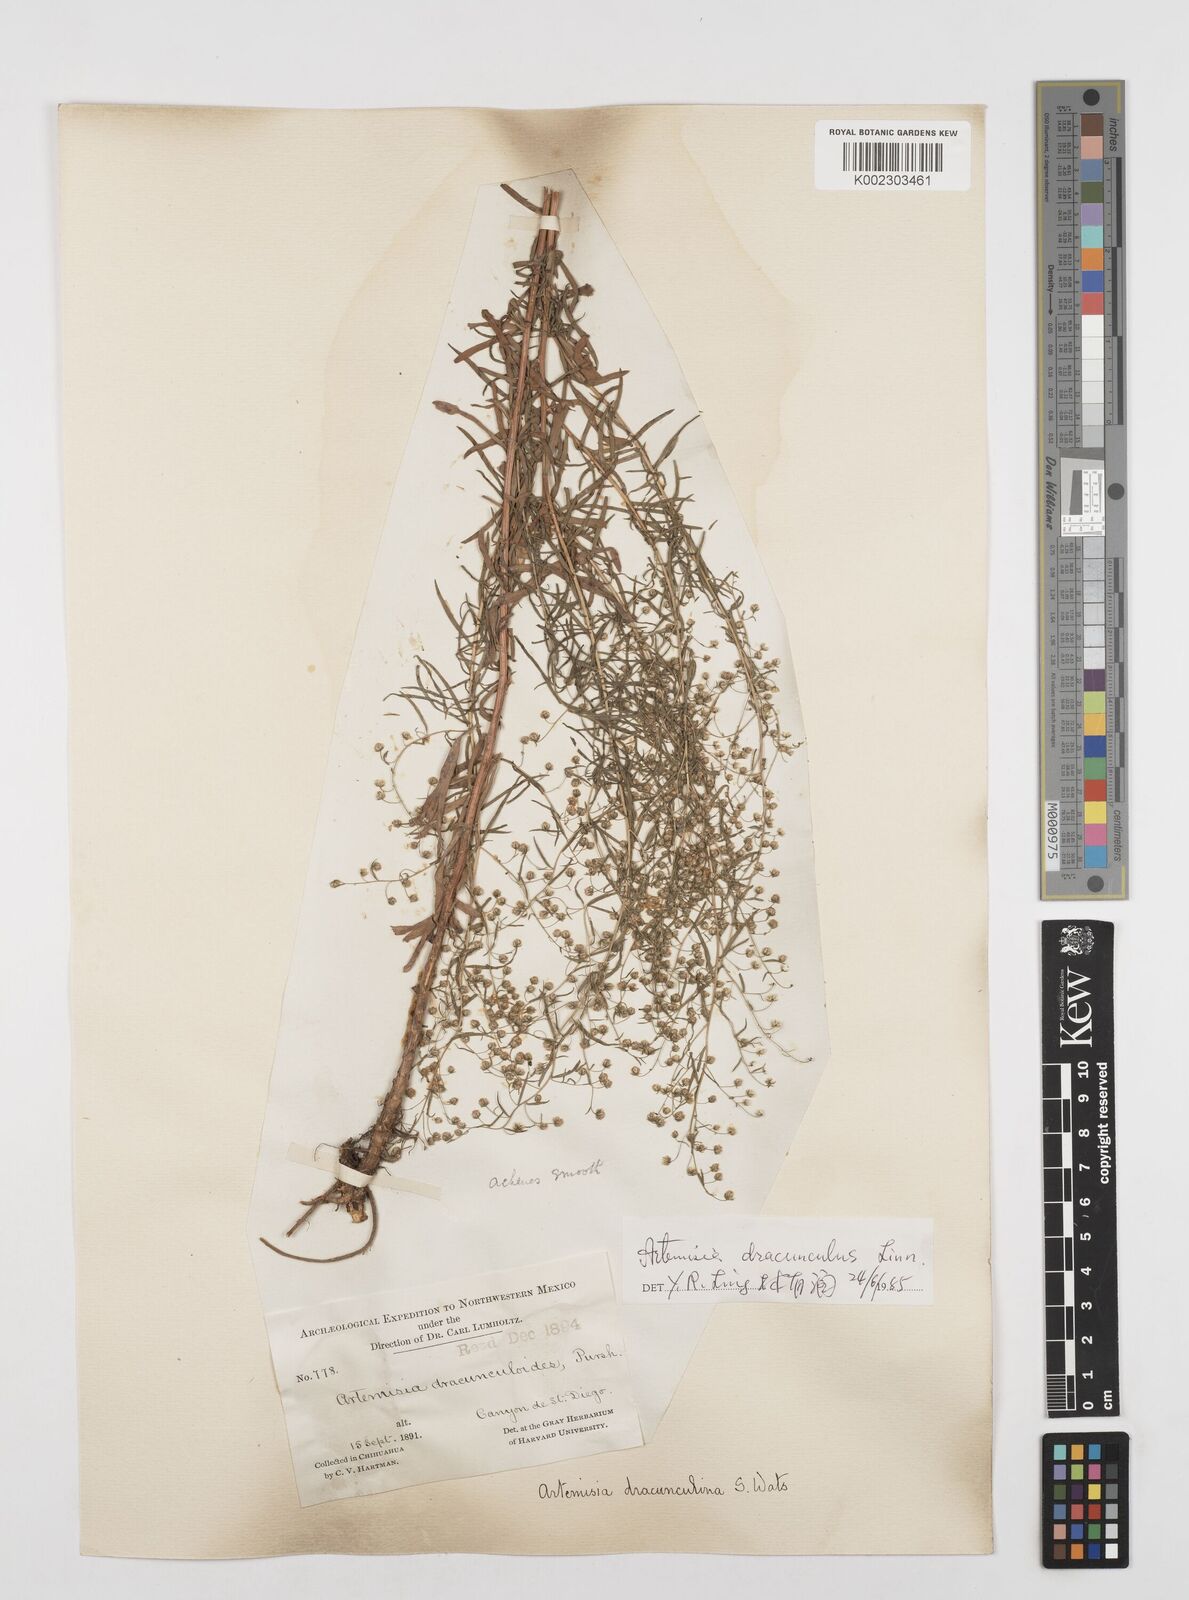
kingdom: Plantae
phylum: Tracheophyta
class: Magnoliopsida
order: Asterales
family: Asteraceae
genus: Artemisia
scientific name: Artemisia dracunculus
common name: Tarragon
